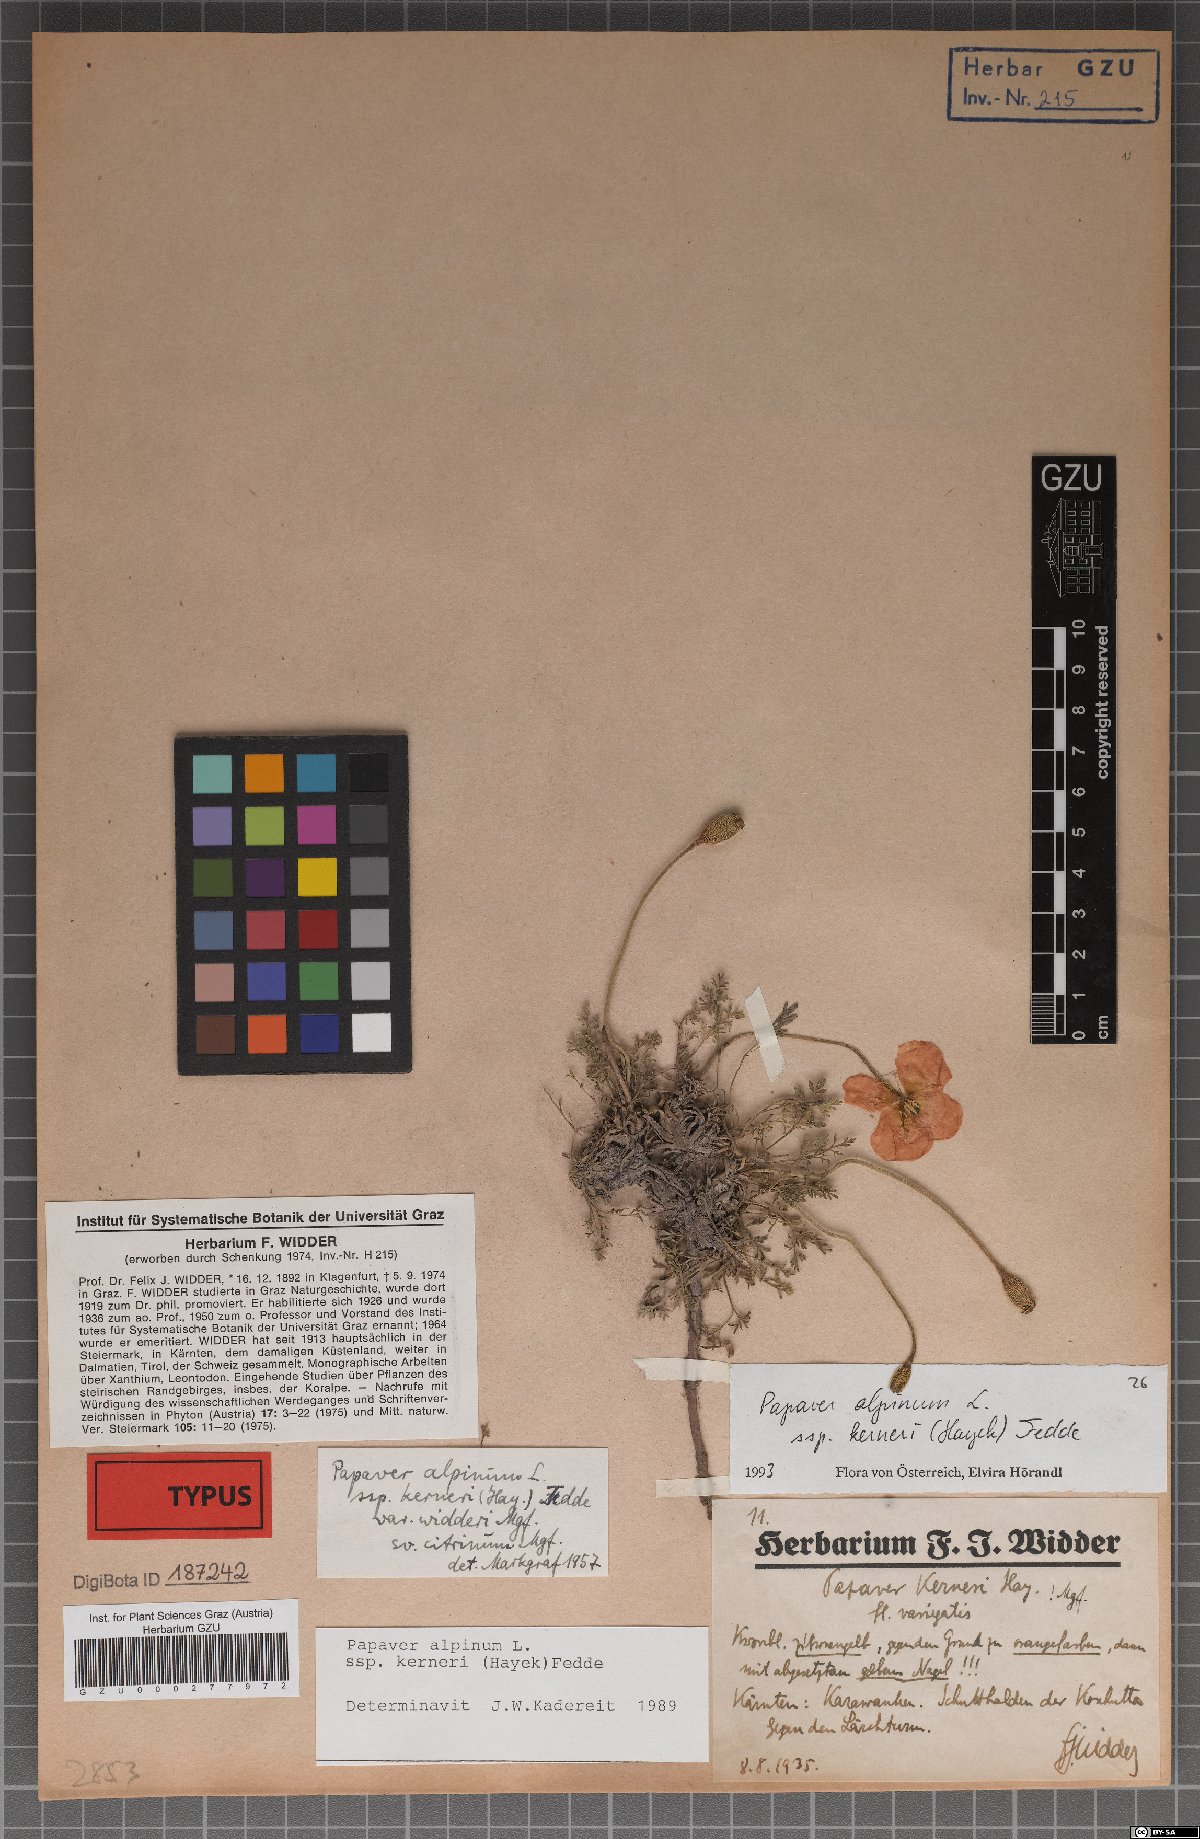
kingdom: Plantae
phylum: Tracheophyta
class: Magnoliopsida
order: Ranunculales
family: Papaveraceae
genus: Papaver
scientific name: Papaver alpinum
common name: Austrian poppy
